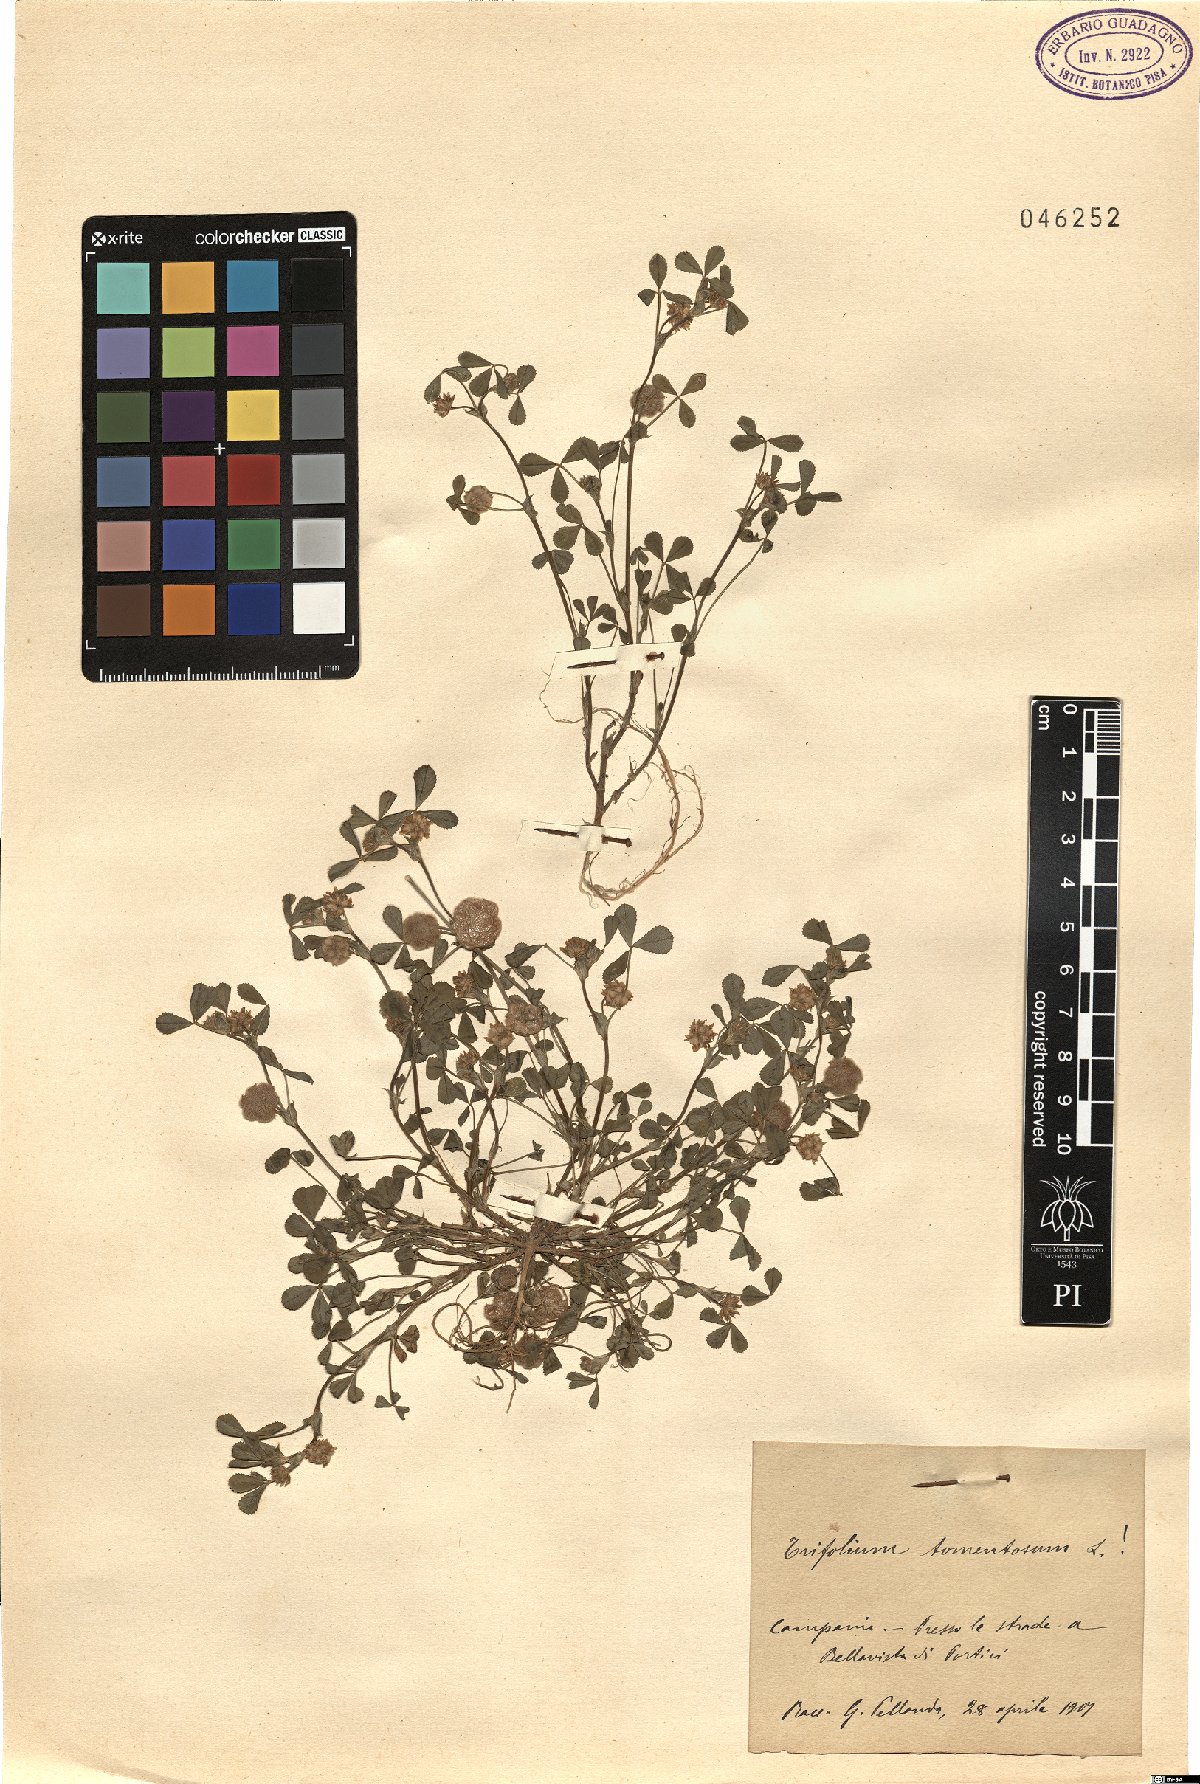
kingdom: Plantae
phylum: Tracheophyta
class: Magnoliopsida
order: Fabales
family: Fabaceae
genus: Trifolium
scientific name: Trifolium tomentosum
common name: Woolly clover
